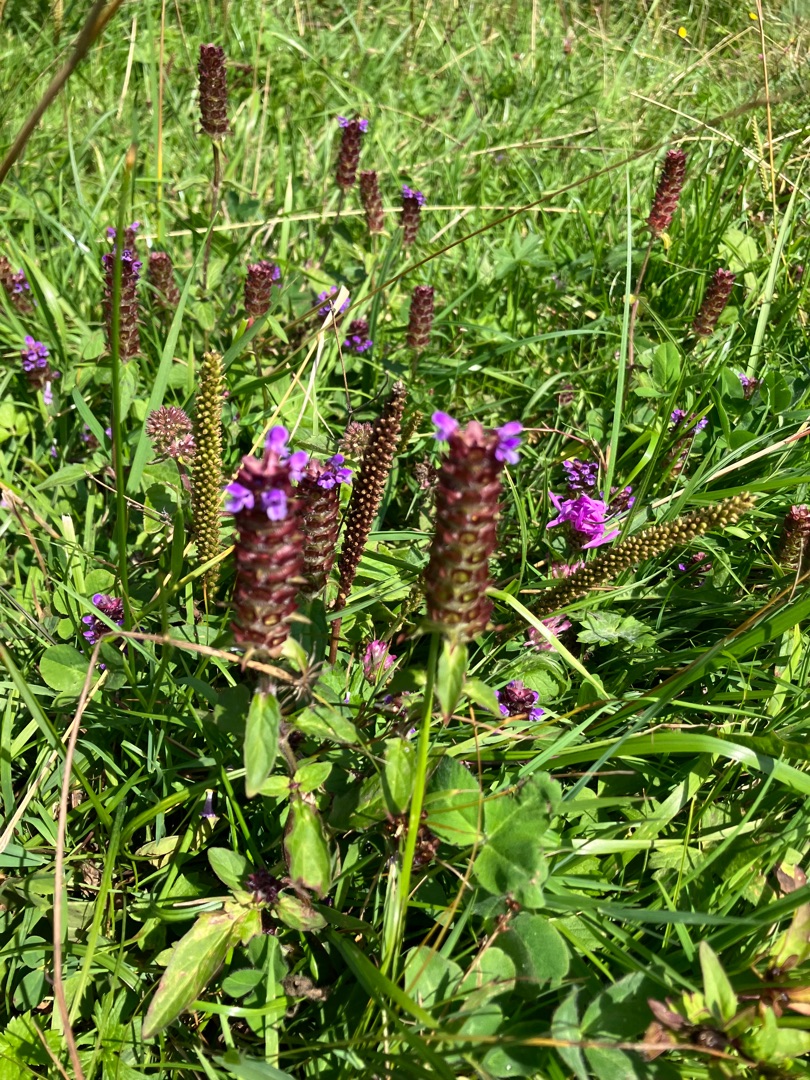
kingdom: Plantae
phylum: Tracheophyta
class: Magnoliopsida
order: Lamiales
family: Lamiaceae
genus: Prunella
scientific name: Prunella vulgaris
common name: Almindelig brunelle
